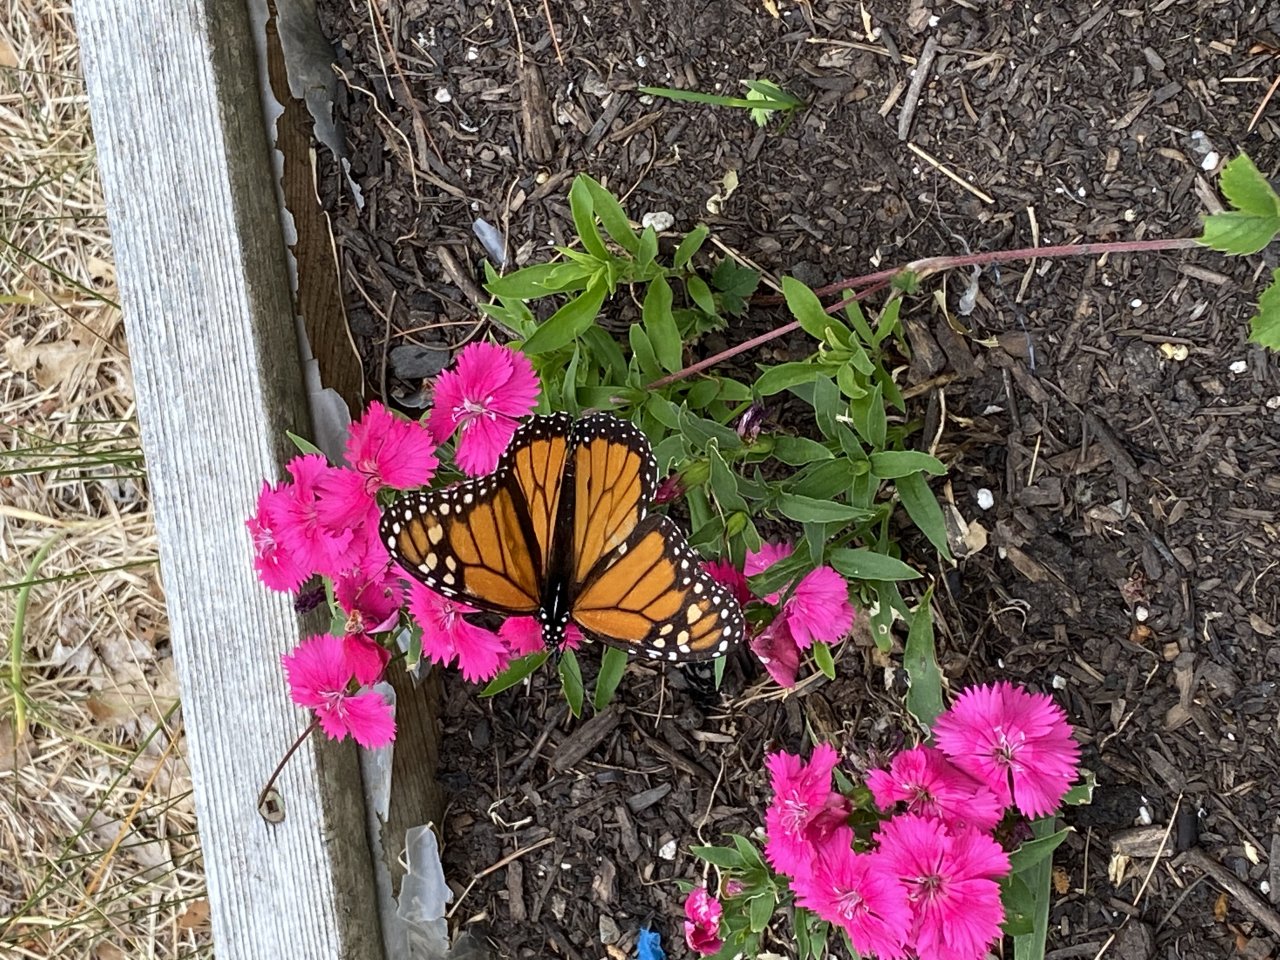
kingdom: Animalia
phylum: Arthropoda
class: Insecta
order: Lepidoptera
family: Nymphalidae
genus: Danaus
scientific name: Danaus plexippus
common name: Monarch
